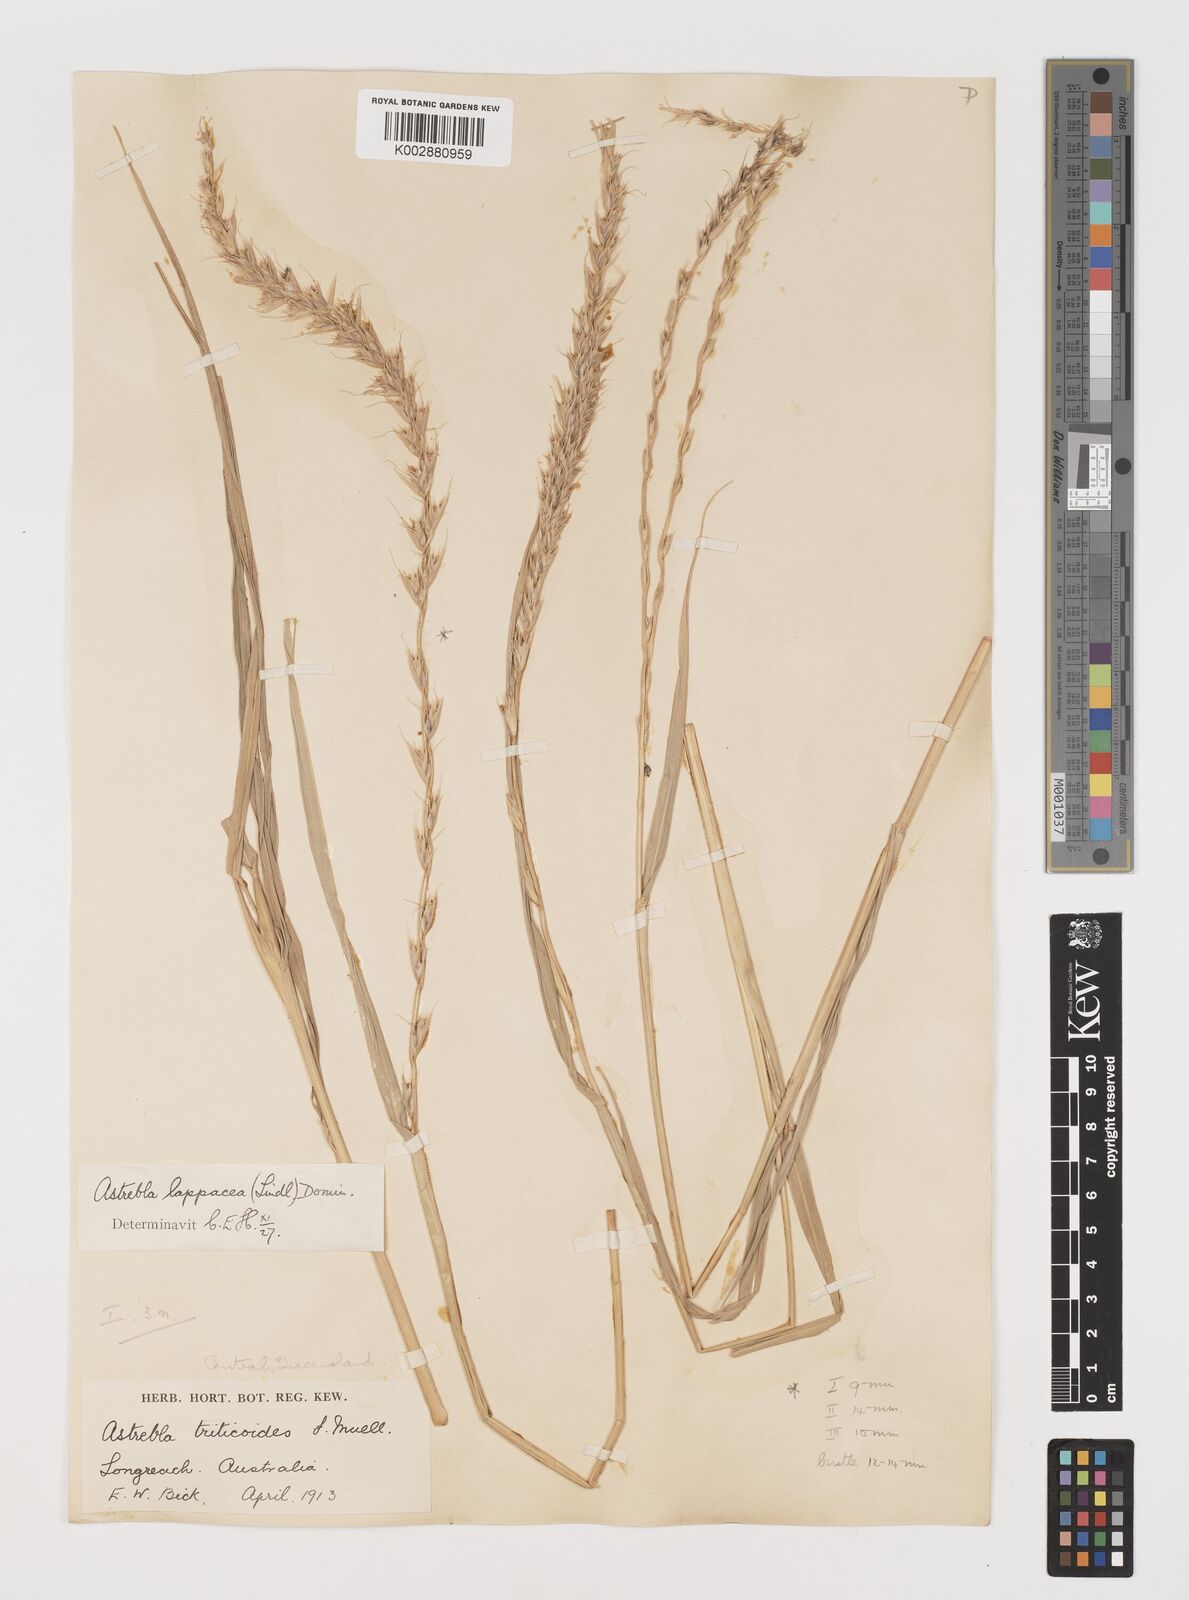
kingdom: Plantae
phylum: Tracheophyta
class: Liliopsida
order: Poales
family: Poaceae
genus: Astrebla
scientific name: Astrebla lappacea
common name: Curly mitchell grass
